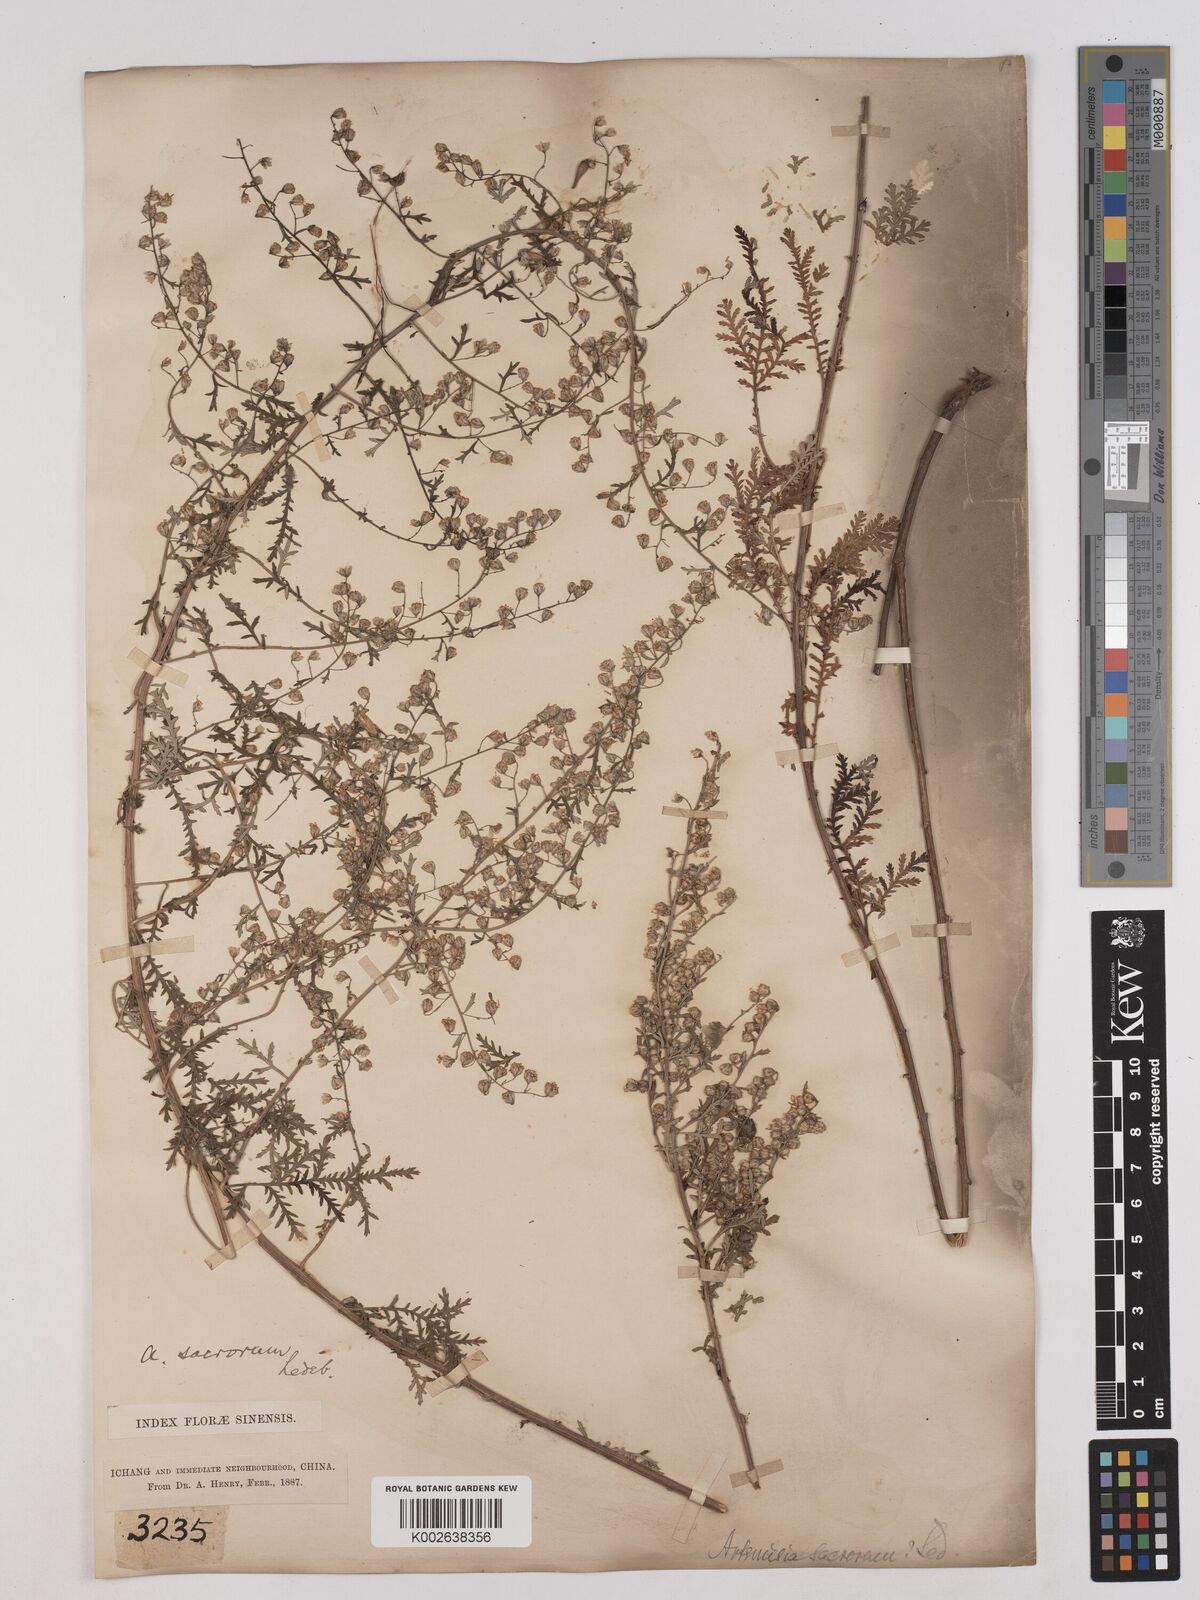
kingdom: Plantae
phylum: Tracheophyta
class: Magnoliopsida
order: Asterales
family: Asteraceae
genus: Artemisia
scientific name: Artemisia gmelinii
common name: Gmelin's wormwood
